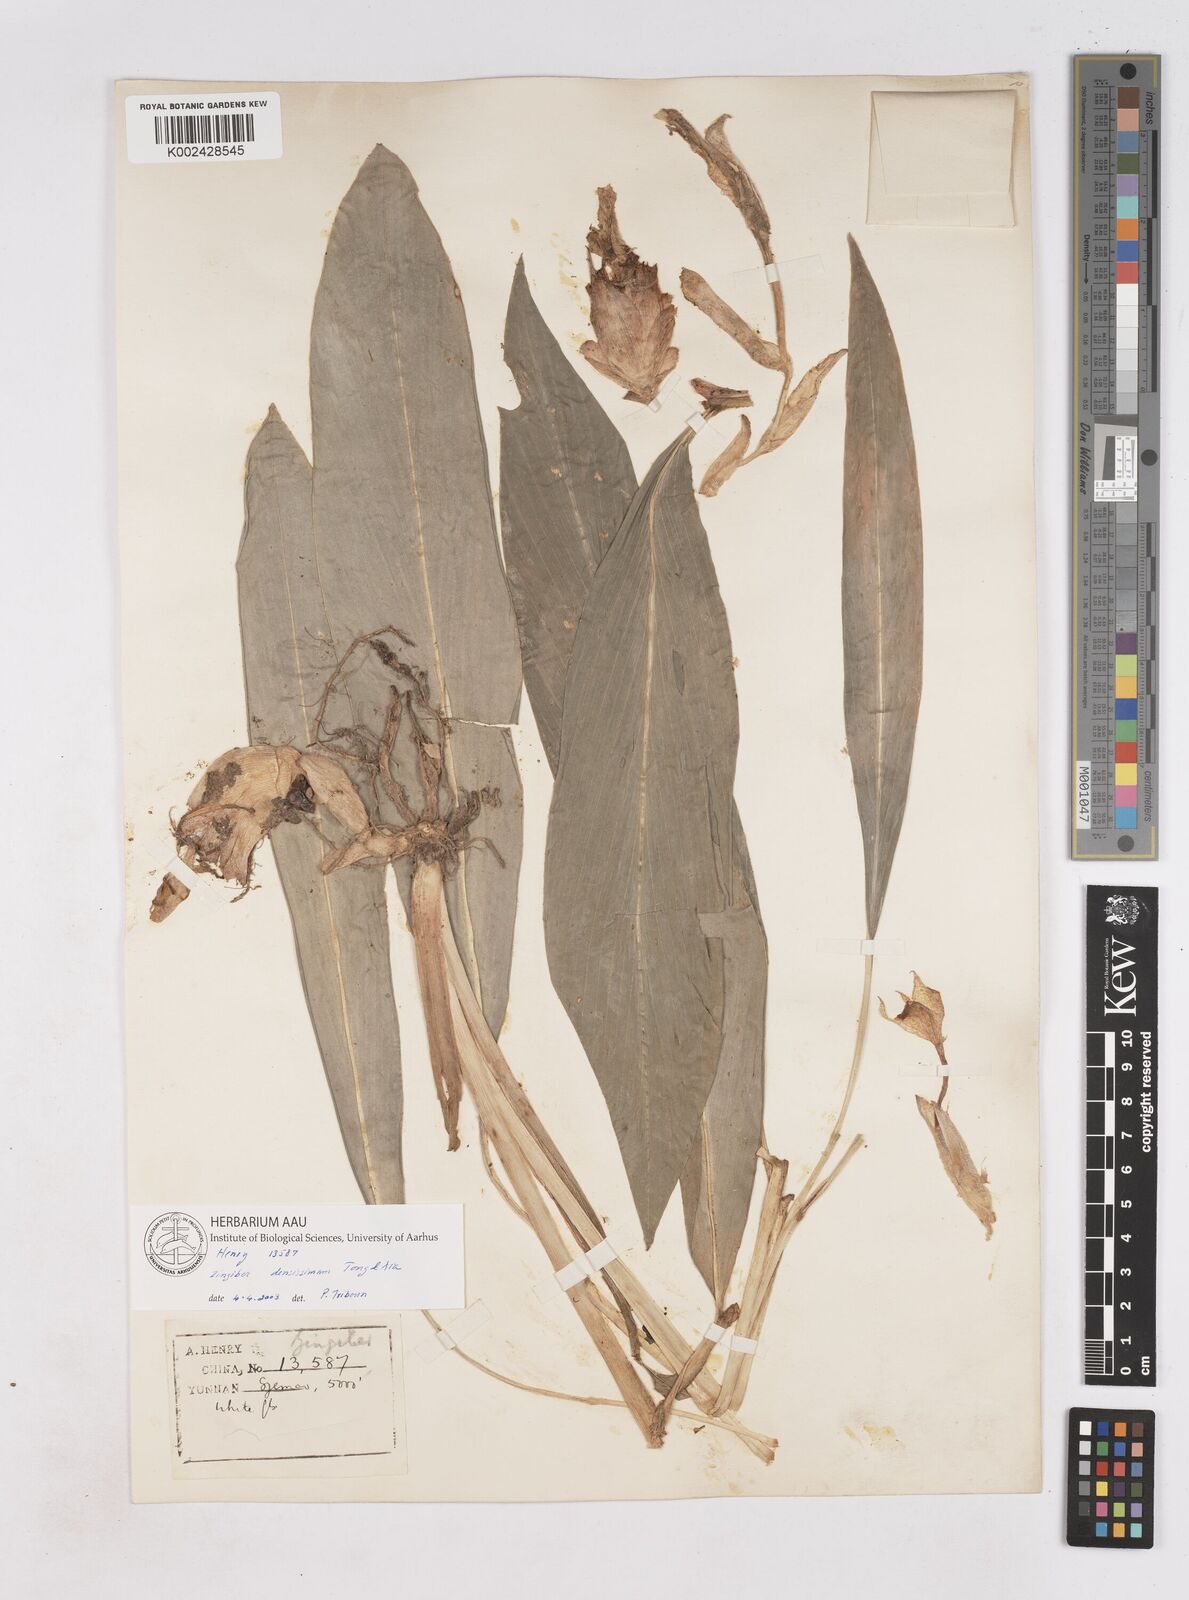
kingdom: Plantae
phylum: Tracheophyta
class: Liliopsida
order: Zingiberales
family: Zingiberaceae
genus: Zingiber
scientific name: Zingiber densissimum
